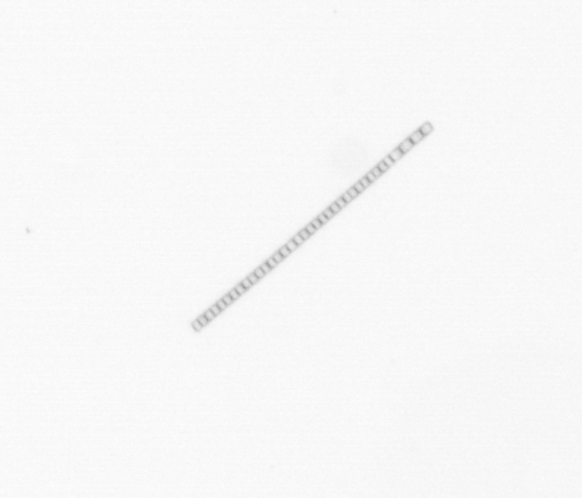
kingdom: Chromista
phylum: Ochrophyta
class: Bacillariophyceae
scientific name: Bacillariophyceae
